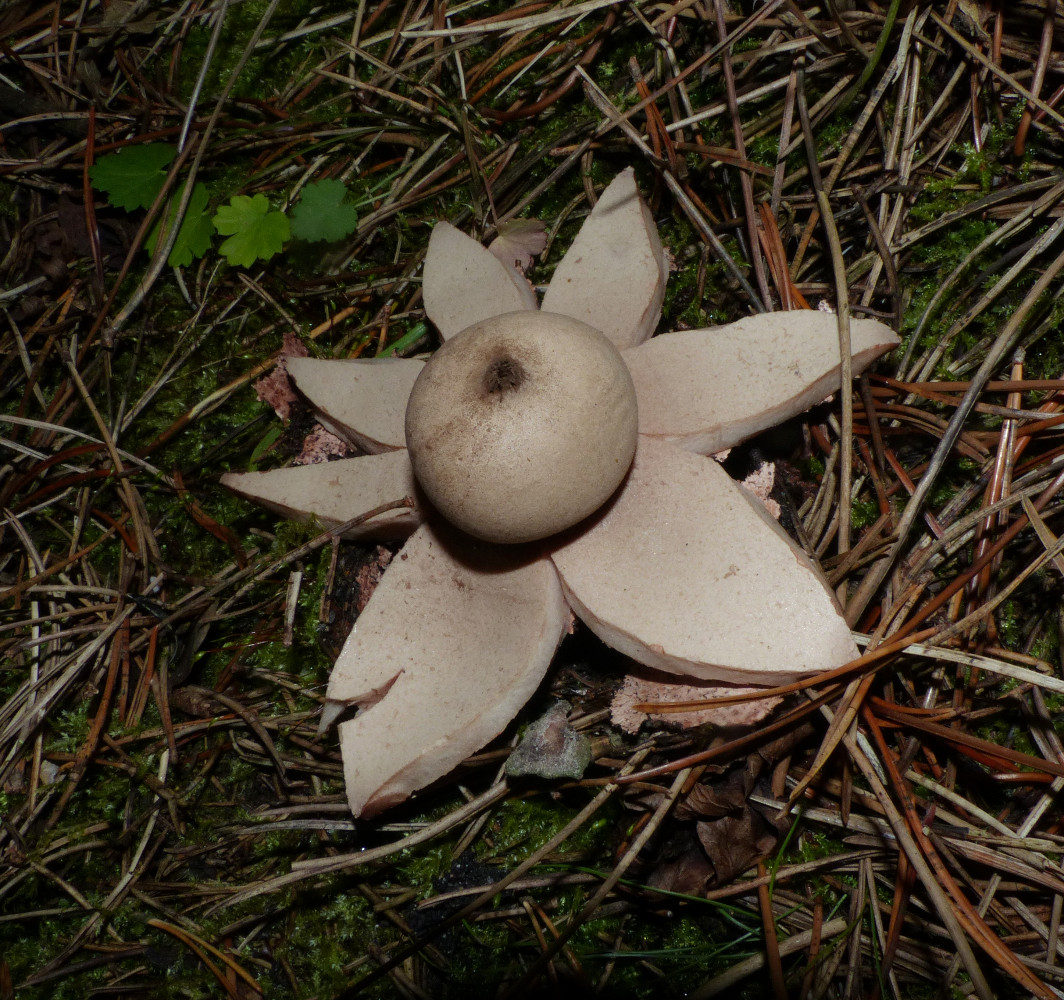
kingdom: Fungi
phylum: Basidiomycota
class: Agaricomycetes
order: Geastrales
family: Geastraceae
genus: Geastrum
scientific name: Geastrum rufescens
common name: kødfarvet stjernebold
